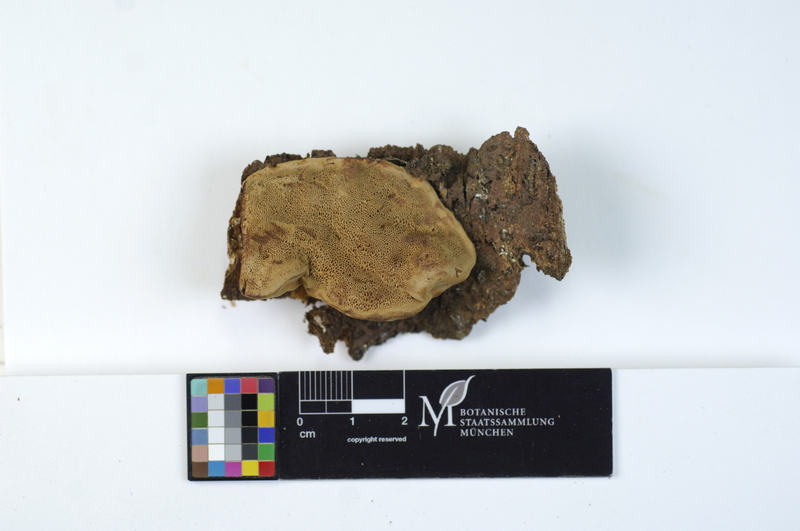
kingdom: Plantae
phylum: Tracheophyta
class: Pinopsida
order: Pinales
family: Pinaceae
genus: Abies
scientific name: Abies
